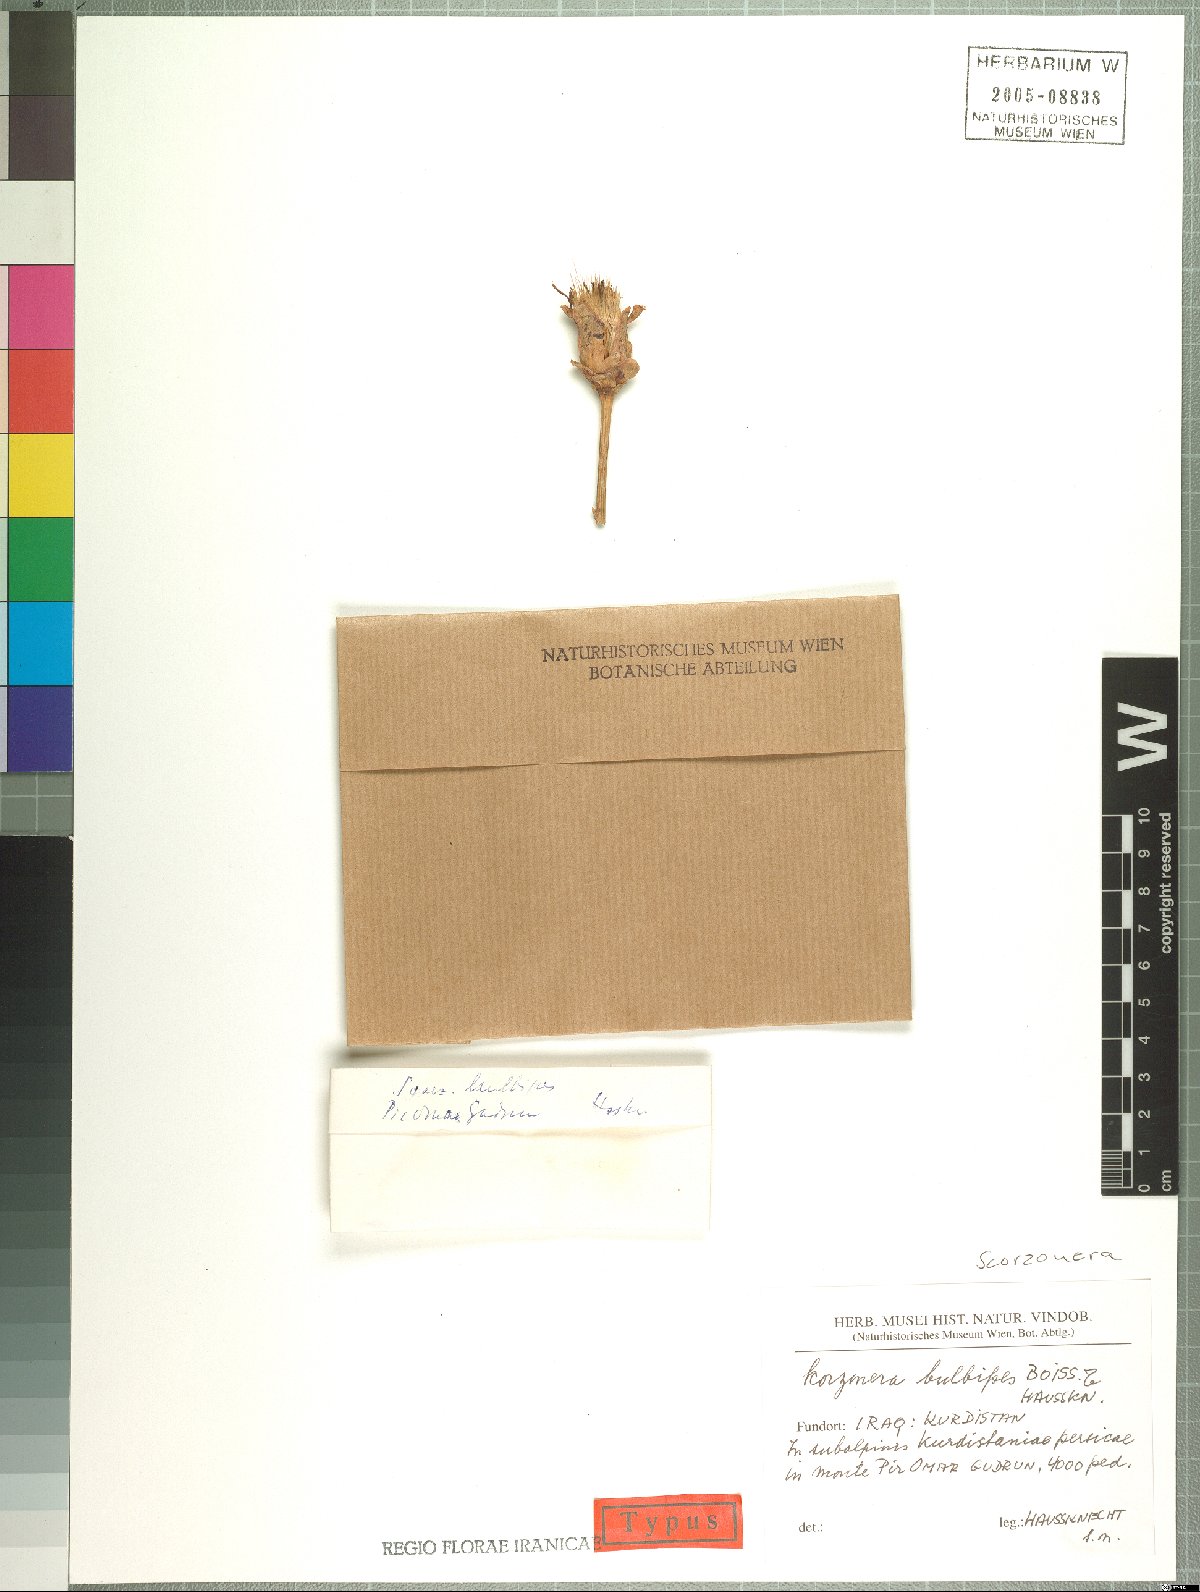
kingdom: Plantae
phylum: Tracheophyta
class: Magnoliopsida
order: Asterales
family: Asteraceae
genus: Aslia
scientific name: Aslia incisa
